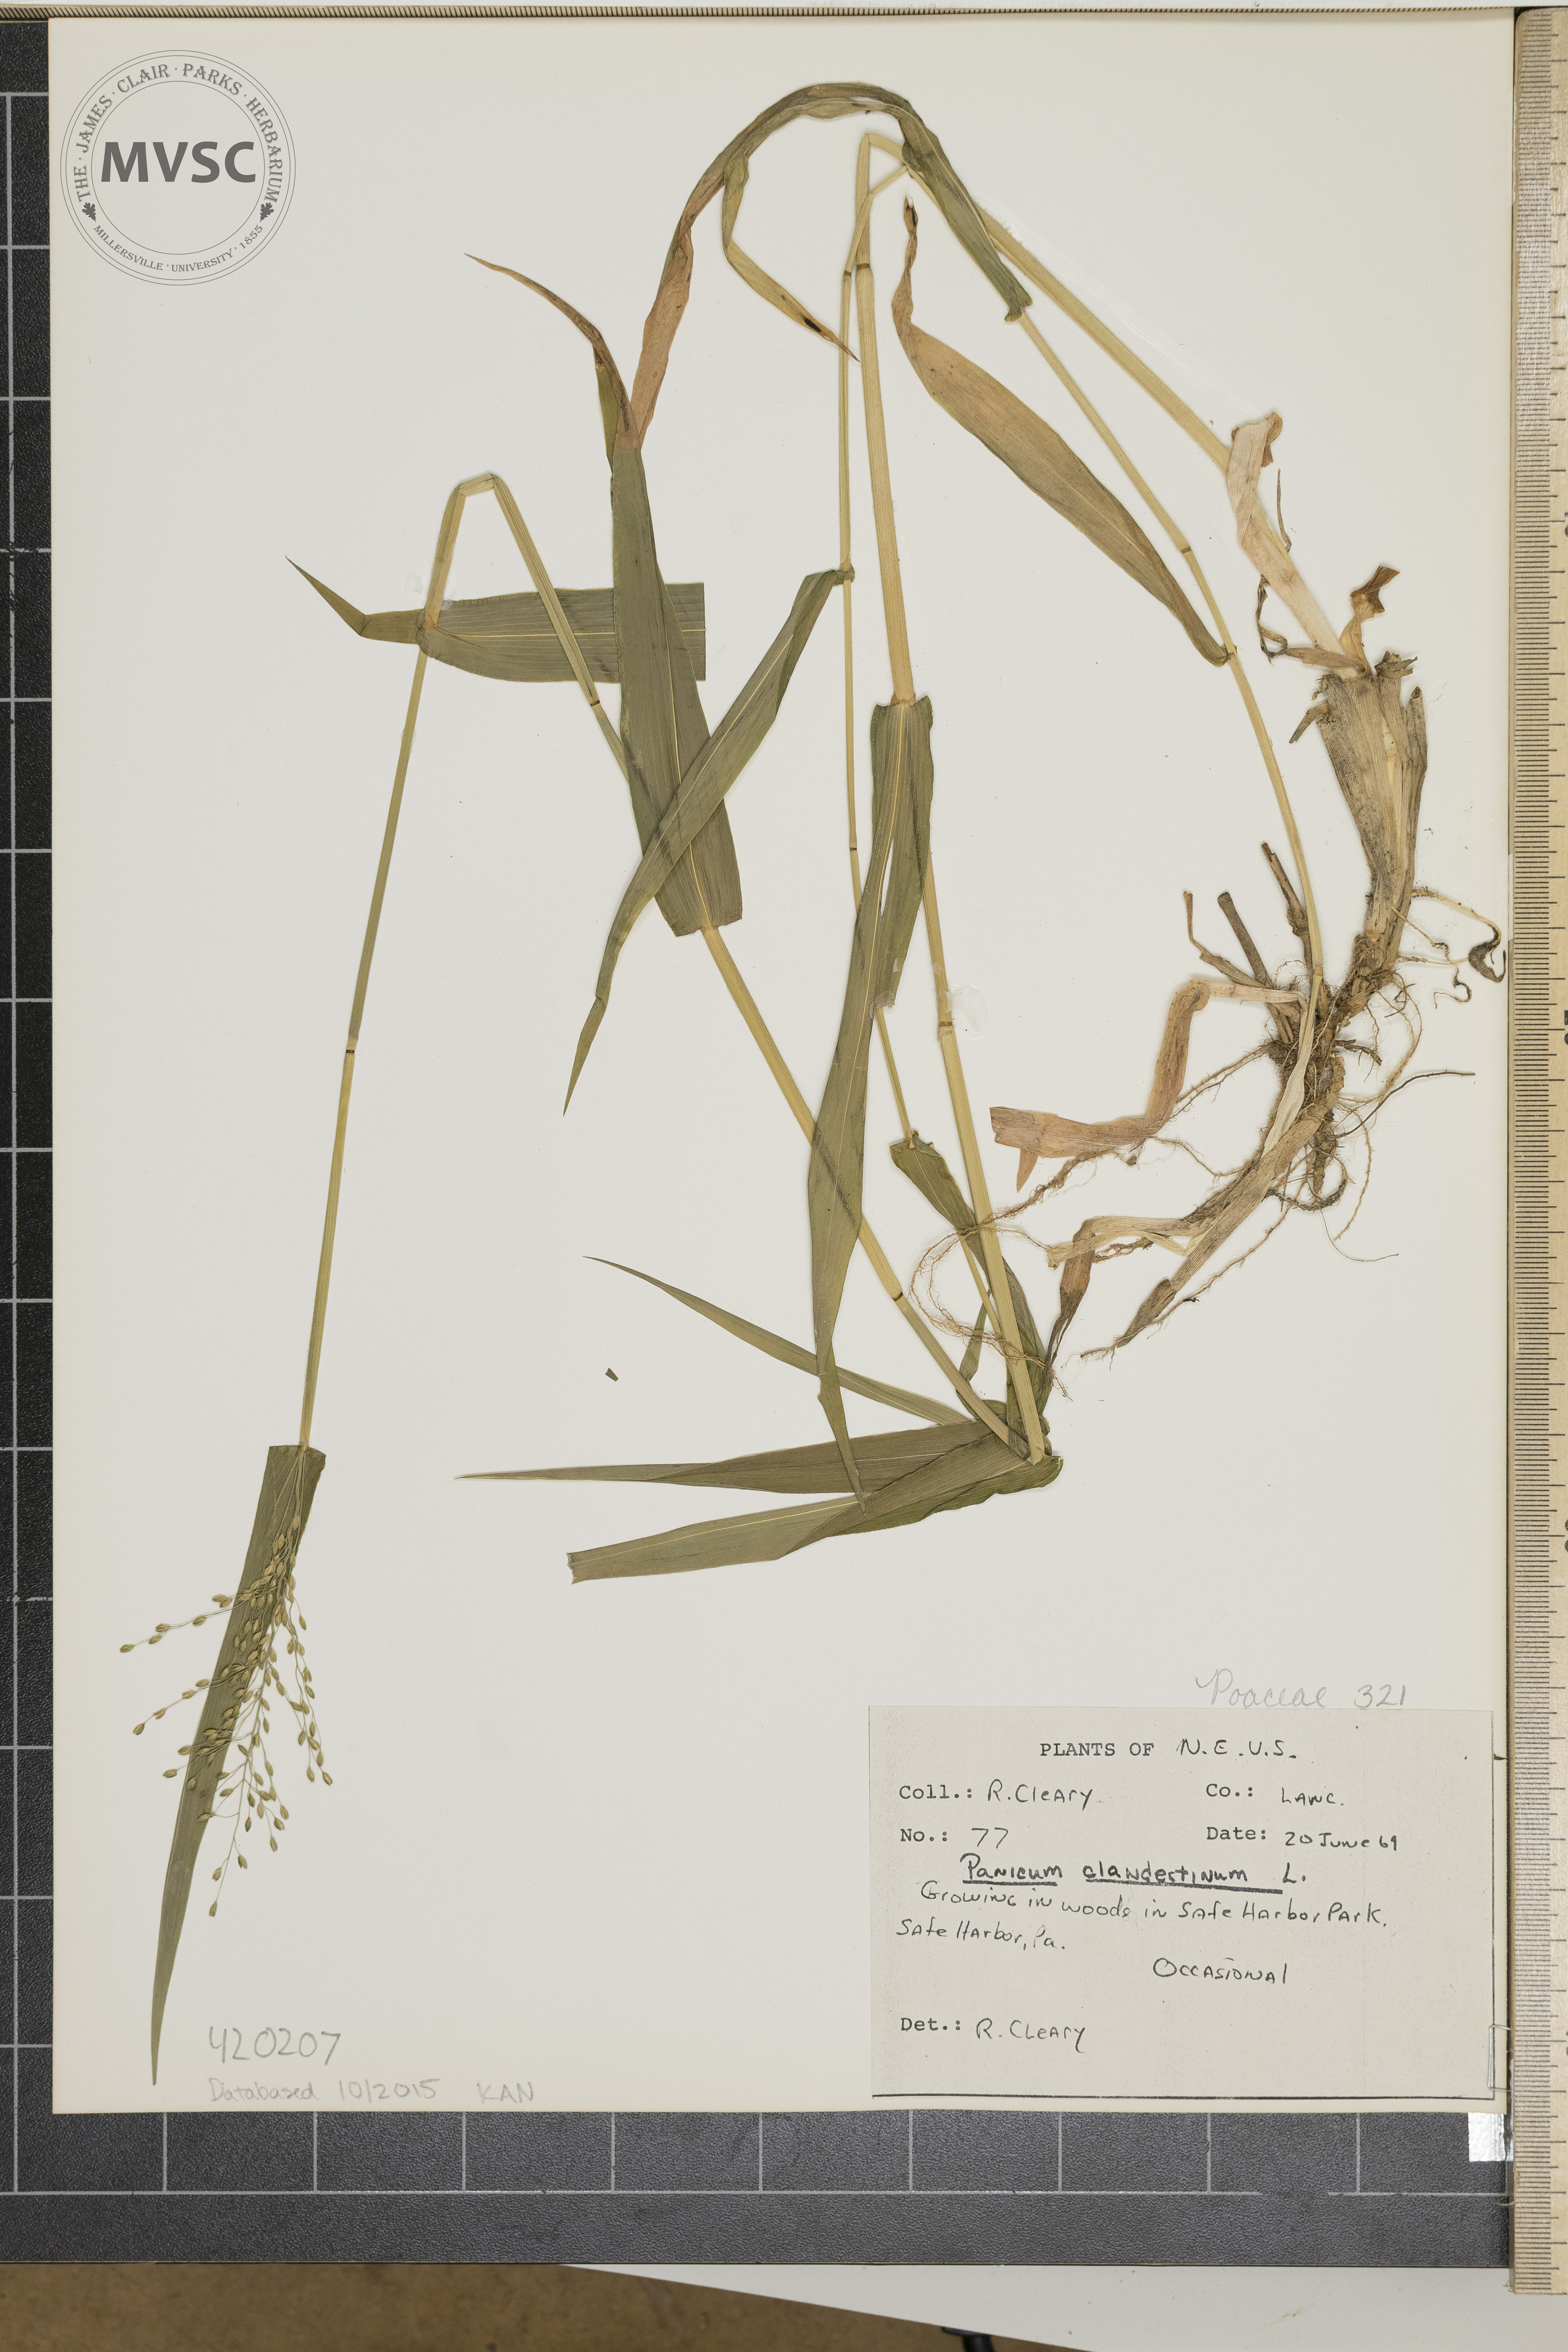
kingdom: Plantae
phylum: Tracheophyta
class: Liliopsida
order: Poales
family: Poaceae
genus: Dichanthelium
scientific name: Dichanthelium clandestinum
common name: Deer-tongue grass
